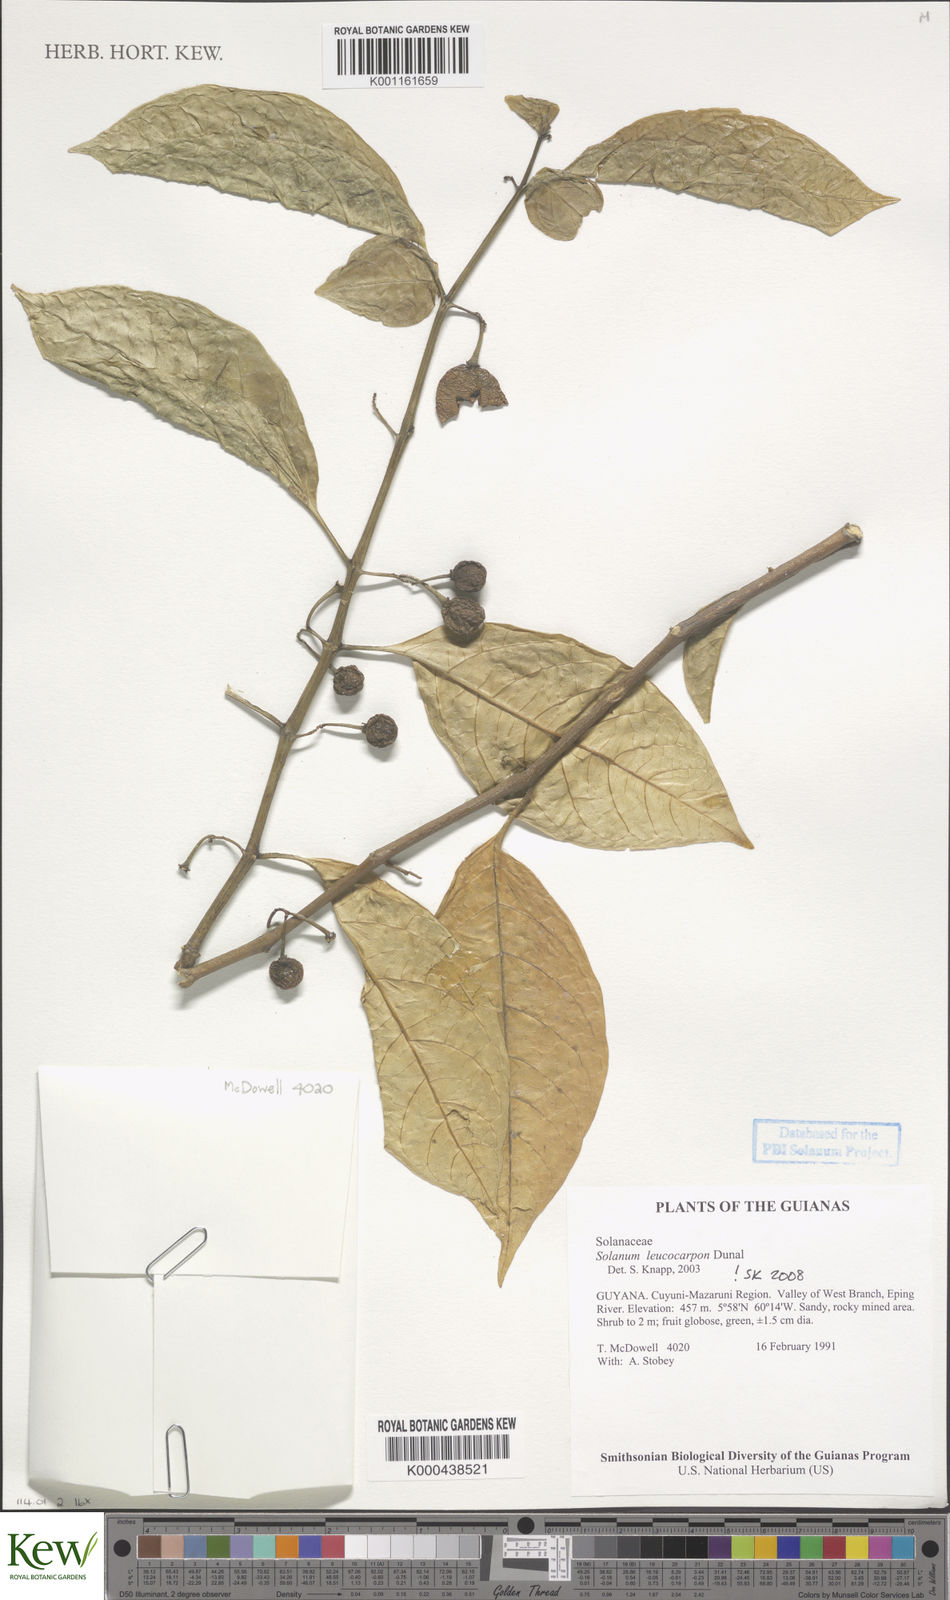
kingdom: Plantae
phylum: Tracheophyta
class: Magnoliopsida
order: Solanales
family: Solanaceae
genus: Solanum
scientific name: Solanum leucocarpon
